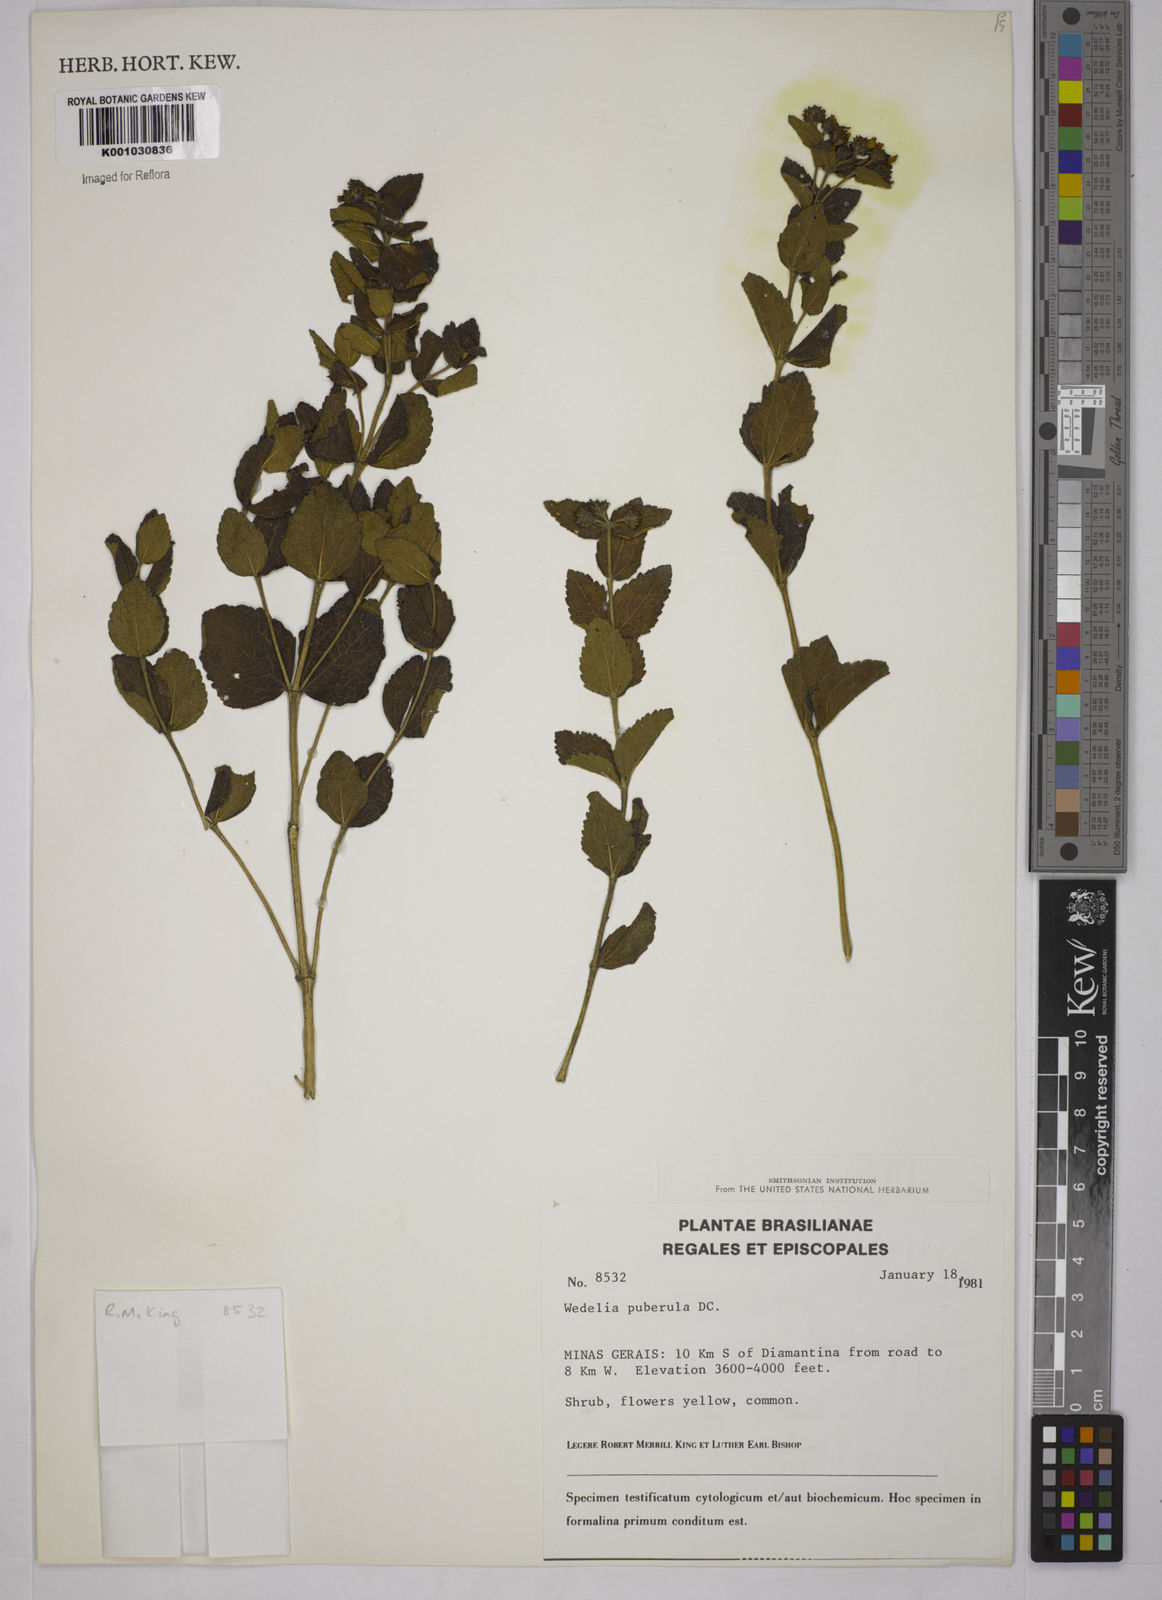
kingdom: Plantae
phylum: Tracheophyta
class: Magnoliopsida
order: Asterales
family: Asteraceae
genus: Wedelia
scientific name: Wedelia puberula
